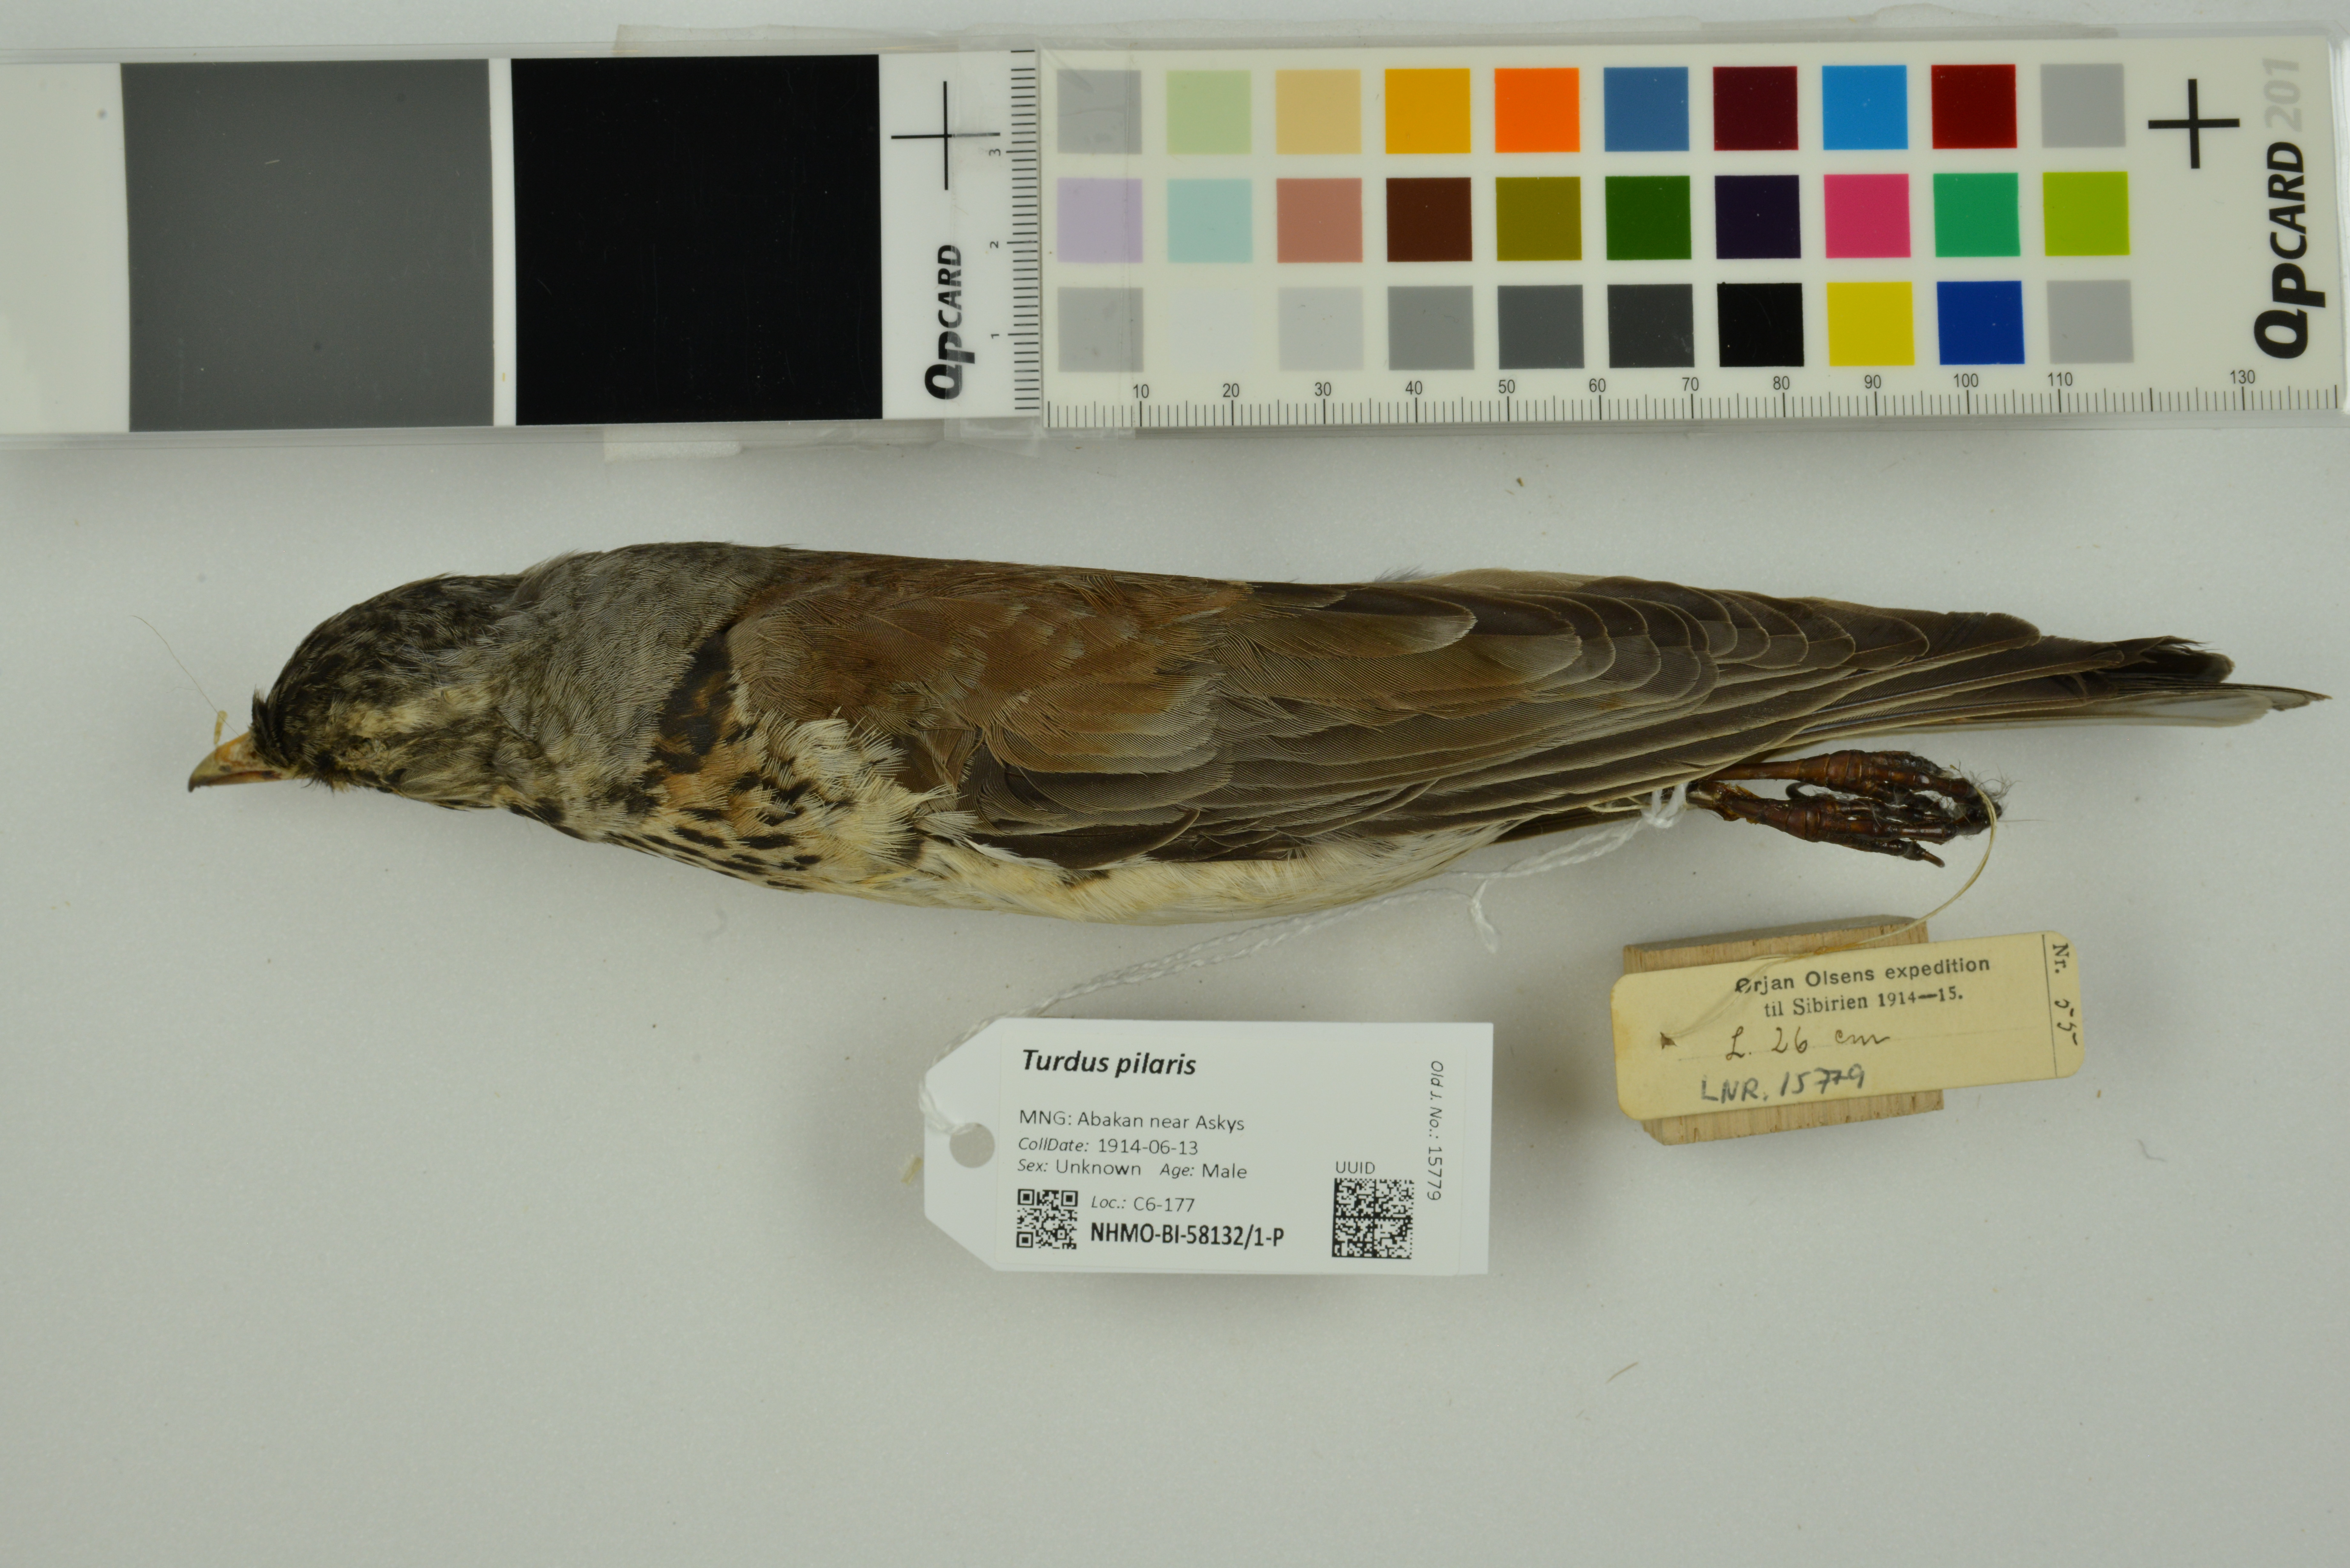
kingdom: Animalia
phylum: Chordata
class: Aves
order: Passeriformes
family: Turdidae
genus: Turdus
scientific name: Turdus pilaris
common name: Fieldfare
